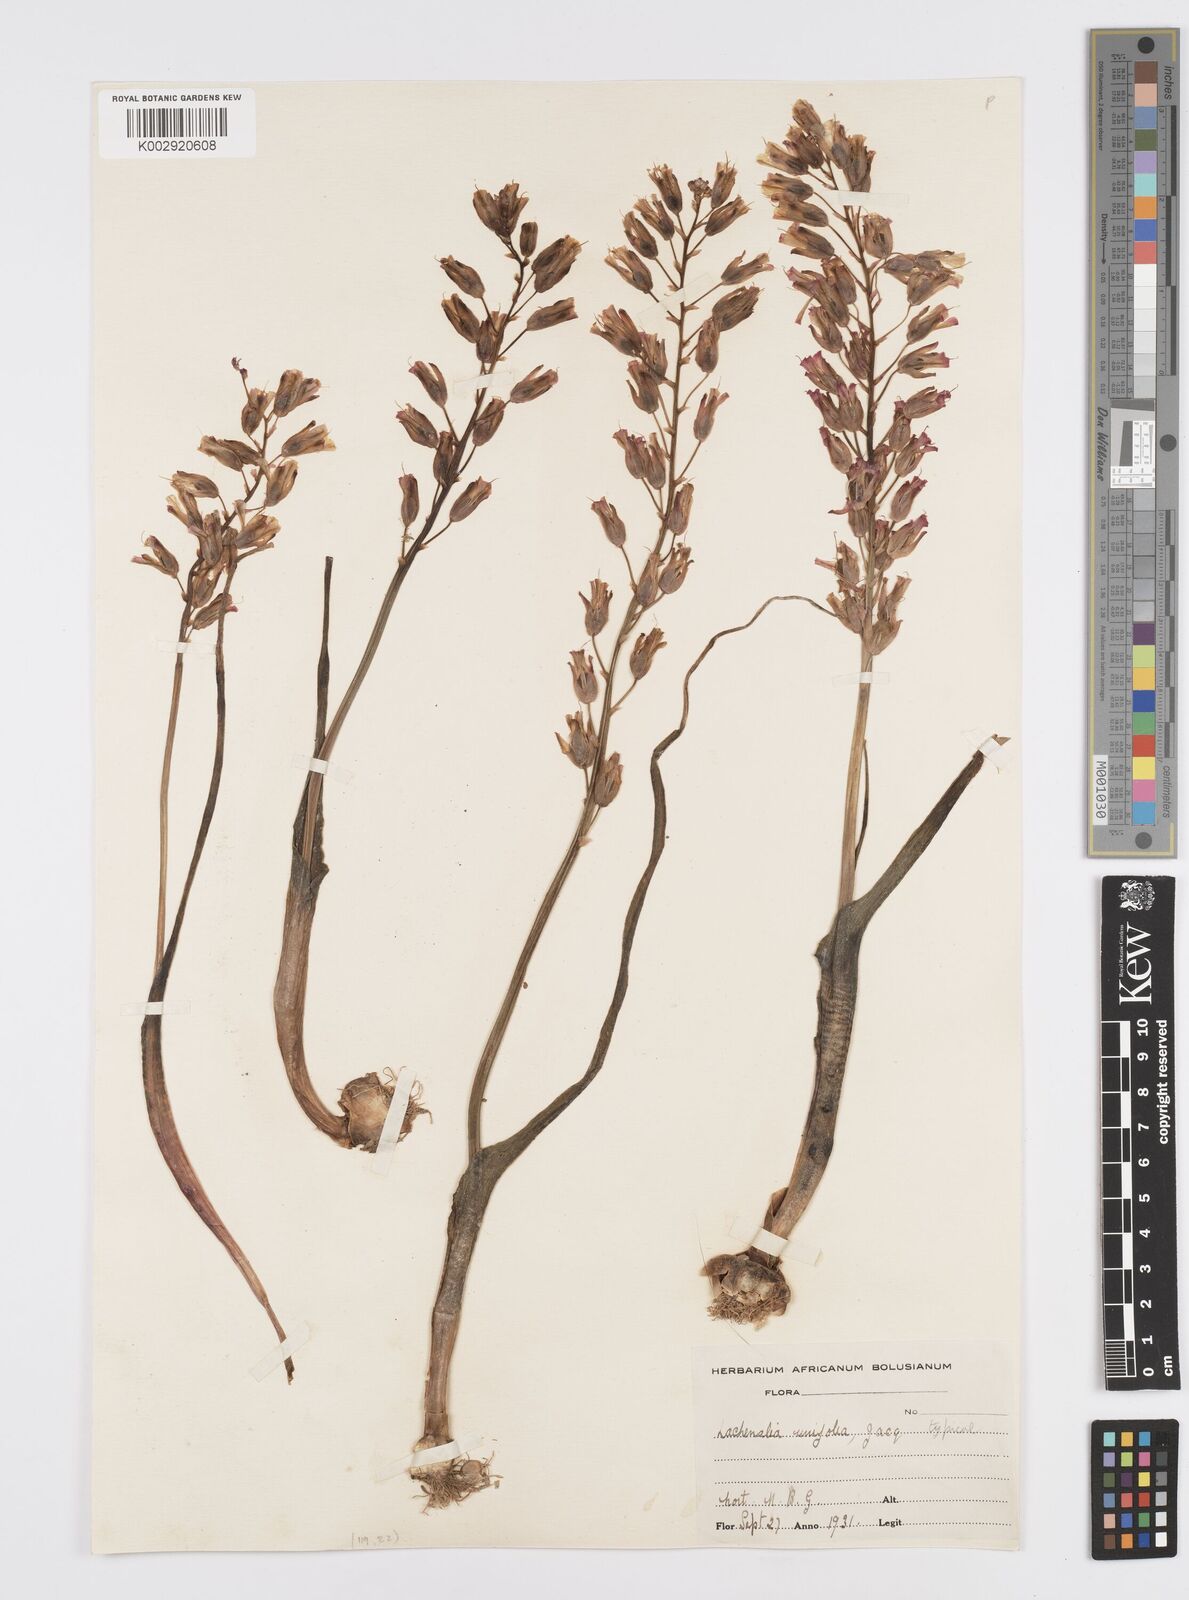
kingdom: Plantae
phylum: Tracheophyta
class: Liliopsida
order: Asparagales
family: Asparagaceae
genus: Lachenalia
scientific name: Lachenalia unifolia
